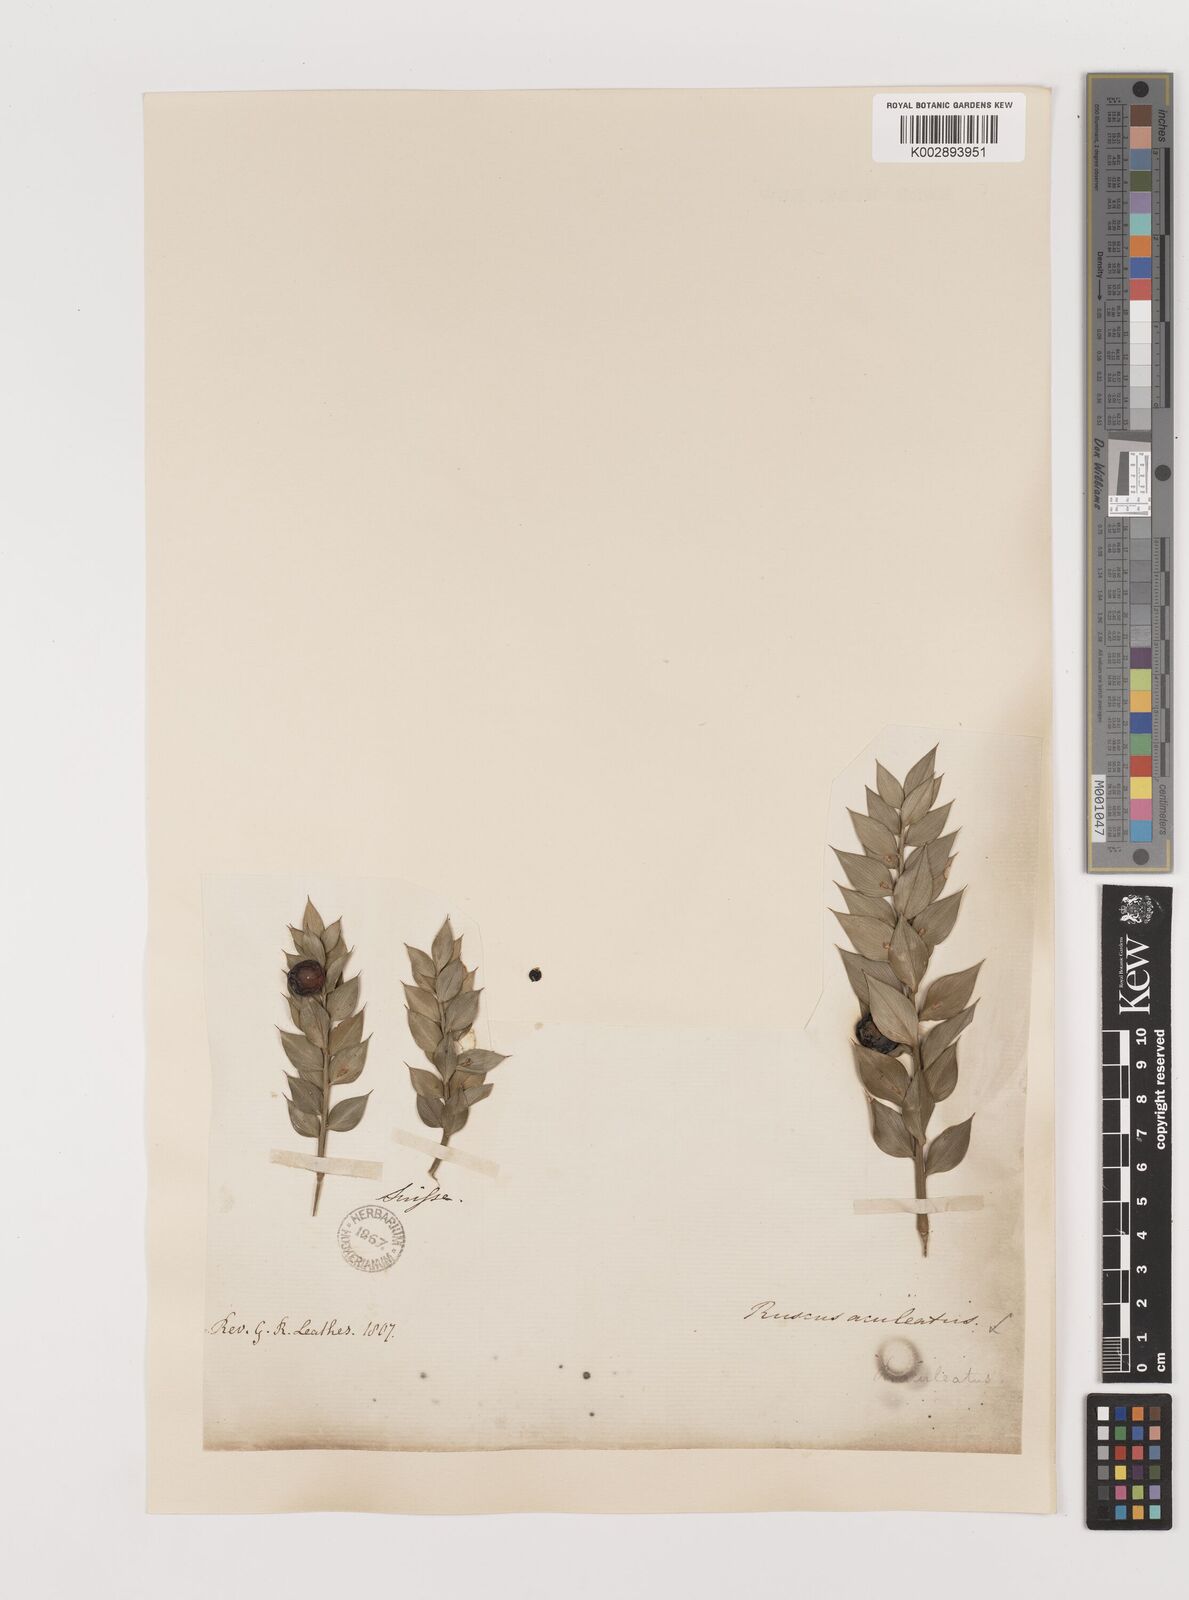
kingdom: Plantae
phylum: Tracheophyta
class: Liliopsida
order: Asparagales
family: Asparagaceae
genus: Ruscus
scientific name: Ruscus aculeatus
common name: Butcher's-broom
